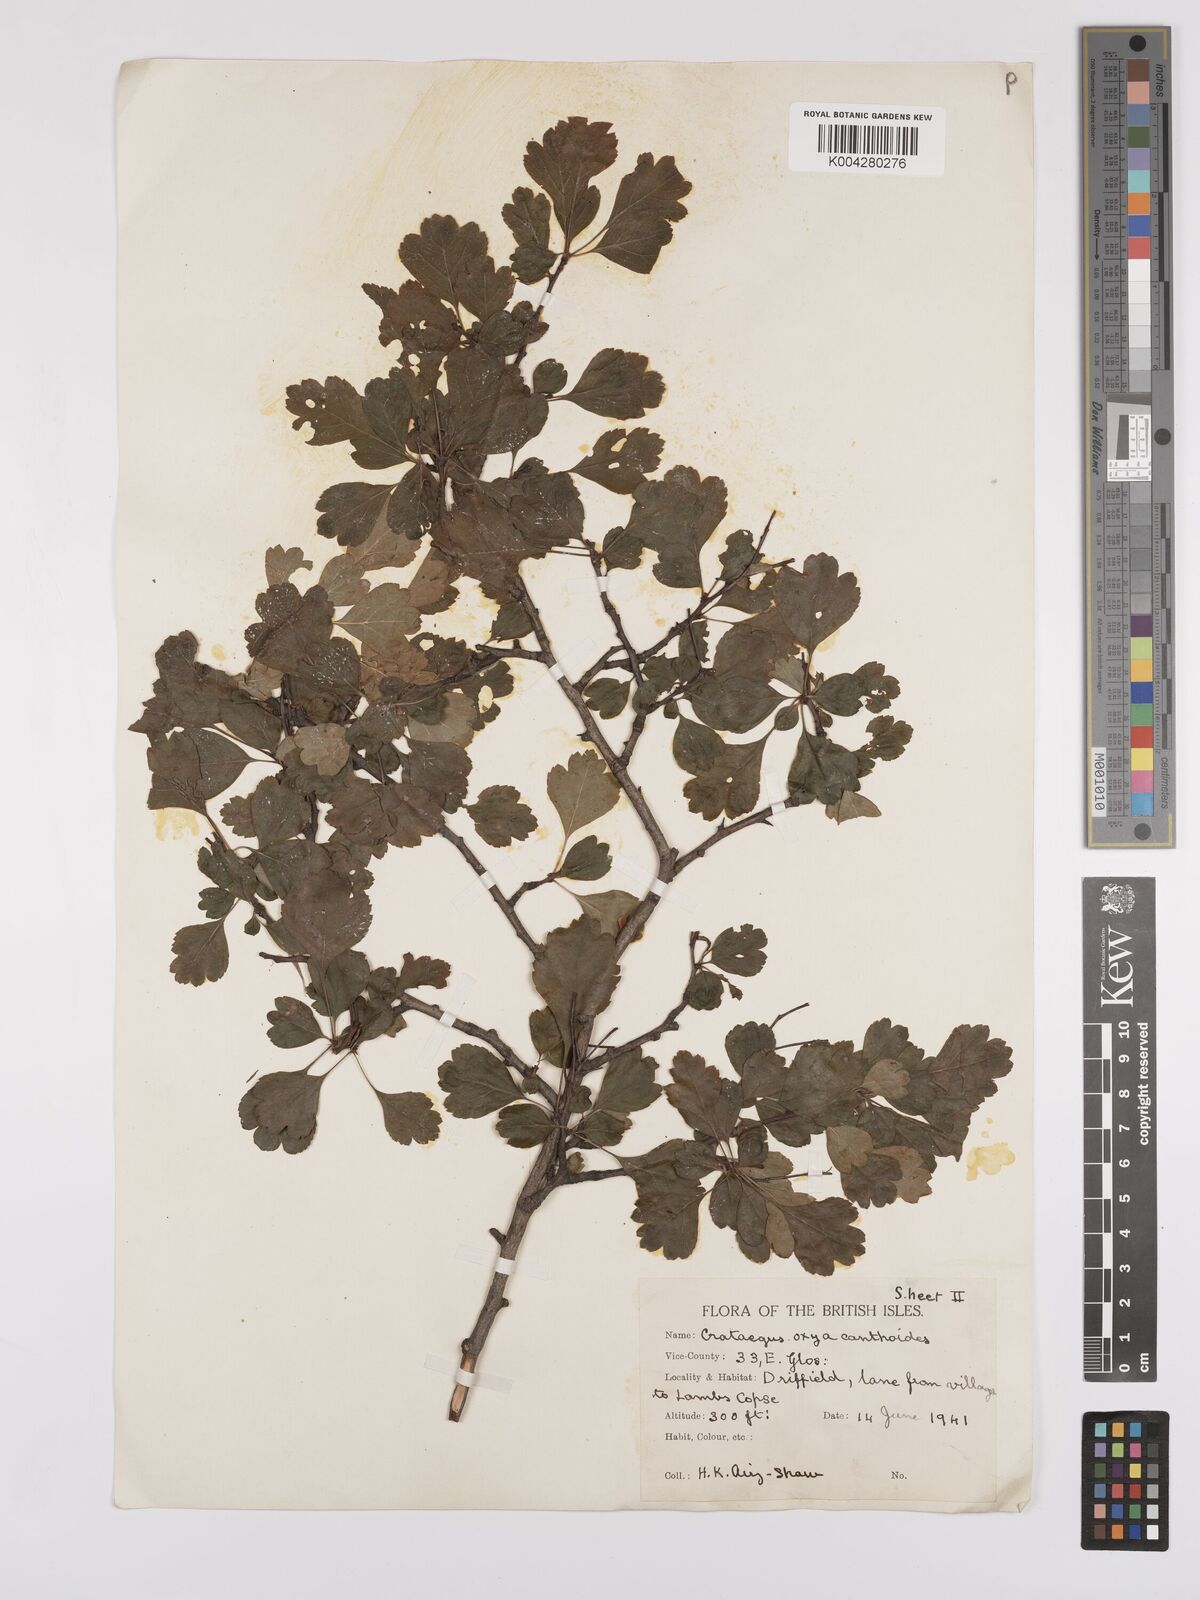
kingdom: Plantae
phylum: Tracheophyta
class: Magnoliopsida
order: Rosales
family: Rosaceae
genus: Crataegus
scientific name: Crataegus laevigata
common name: Midland hawthorn
